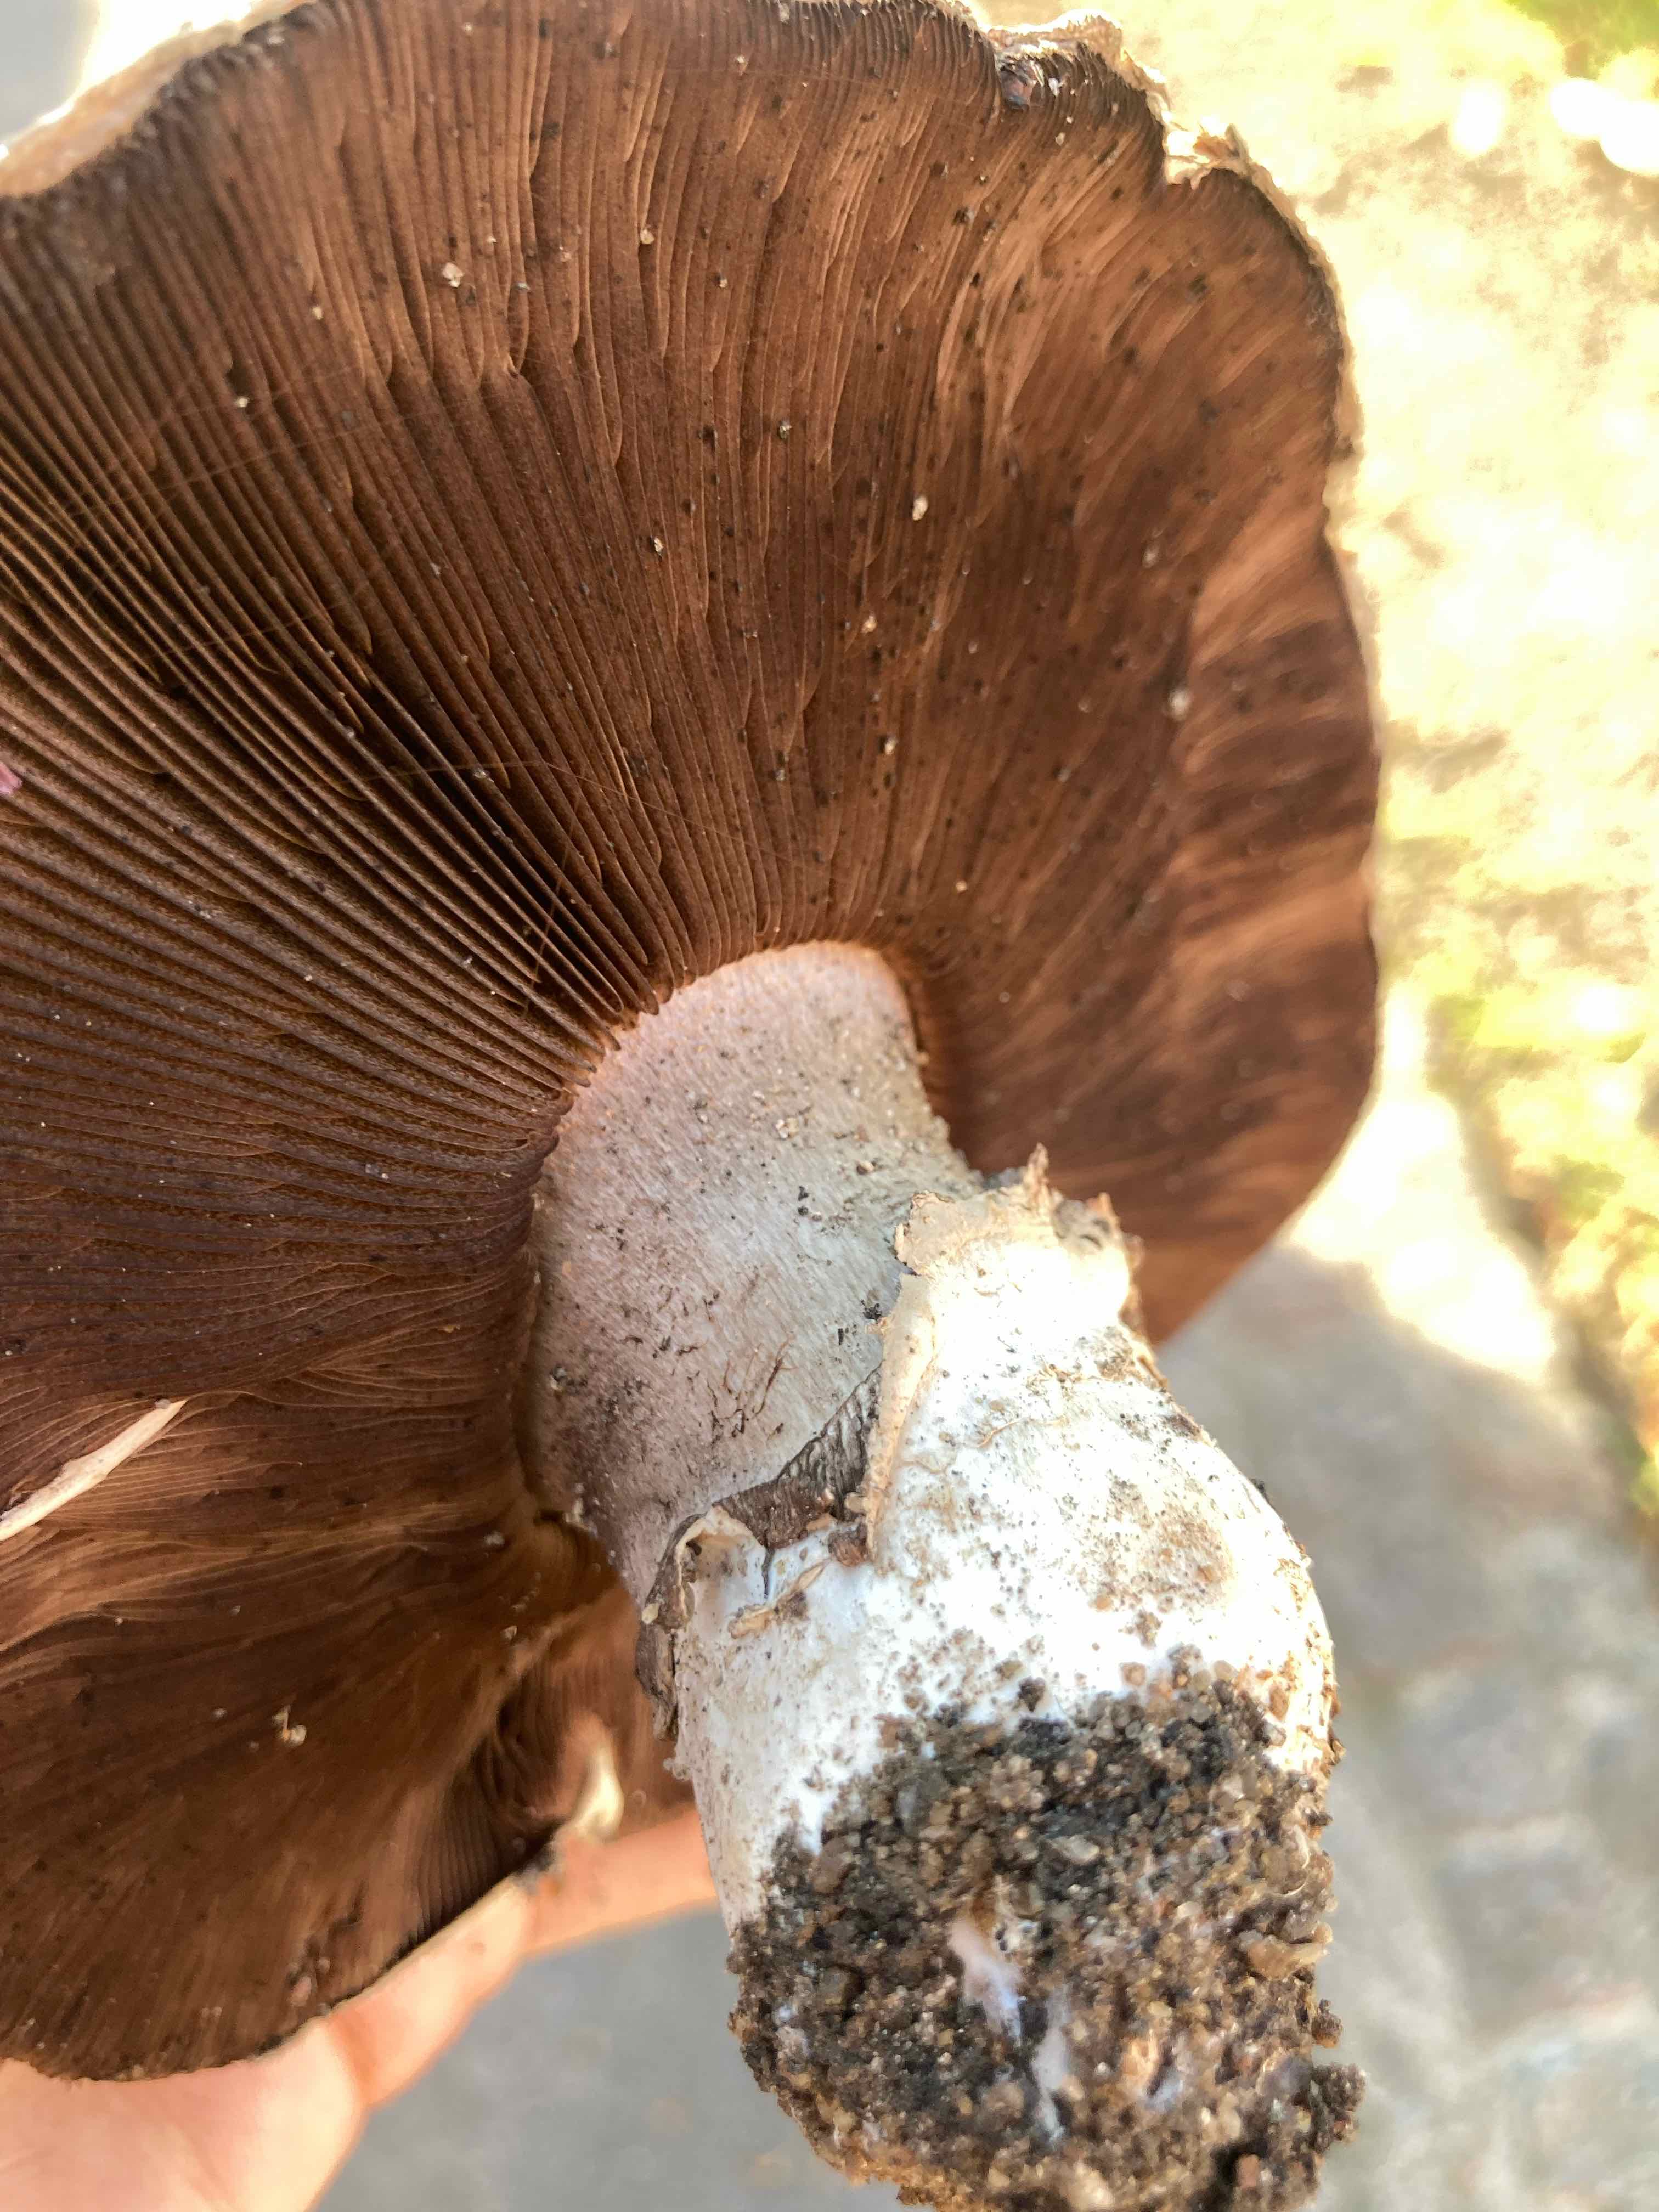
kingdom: Fungi
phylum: Basidiomycota
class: Agaricomycetes
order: Agaricales
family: Agaricaceae
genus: Agaricus
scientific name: Agaricus bitorquis
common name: vej-champignon
